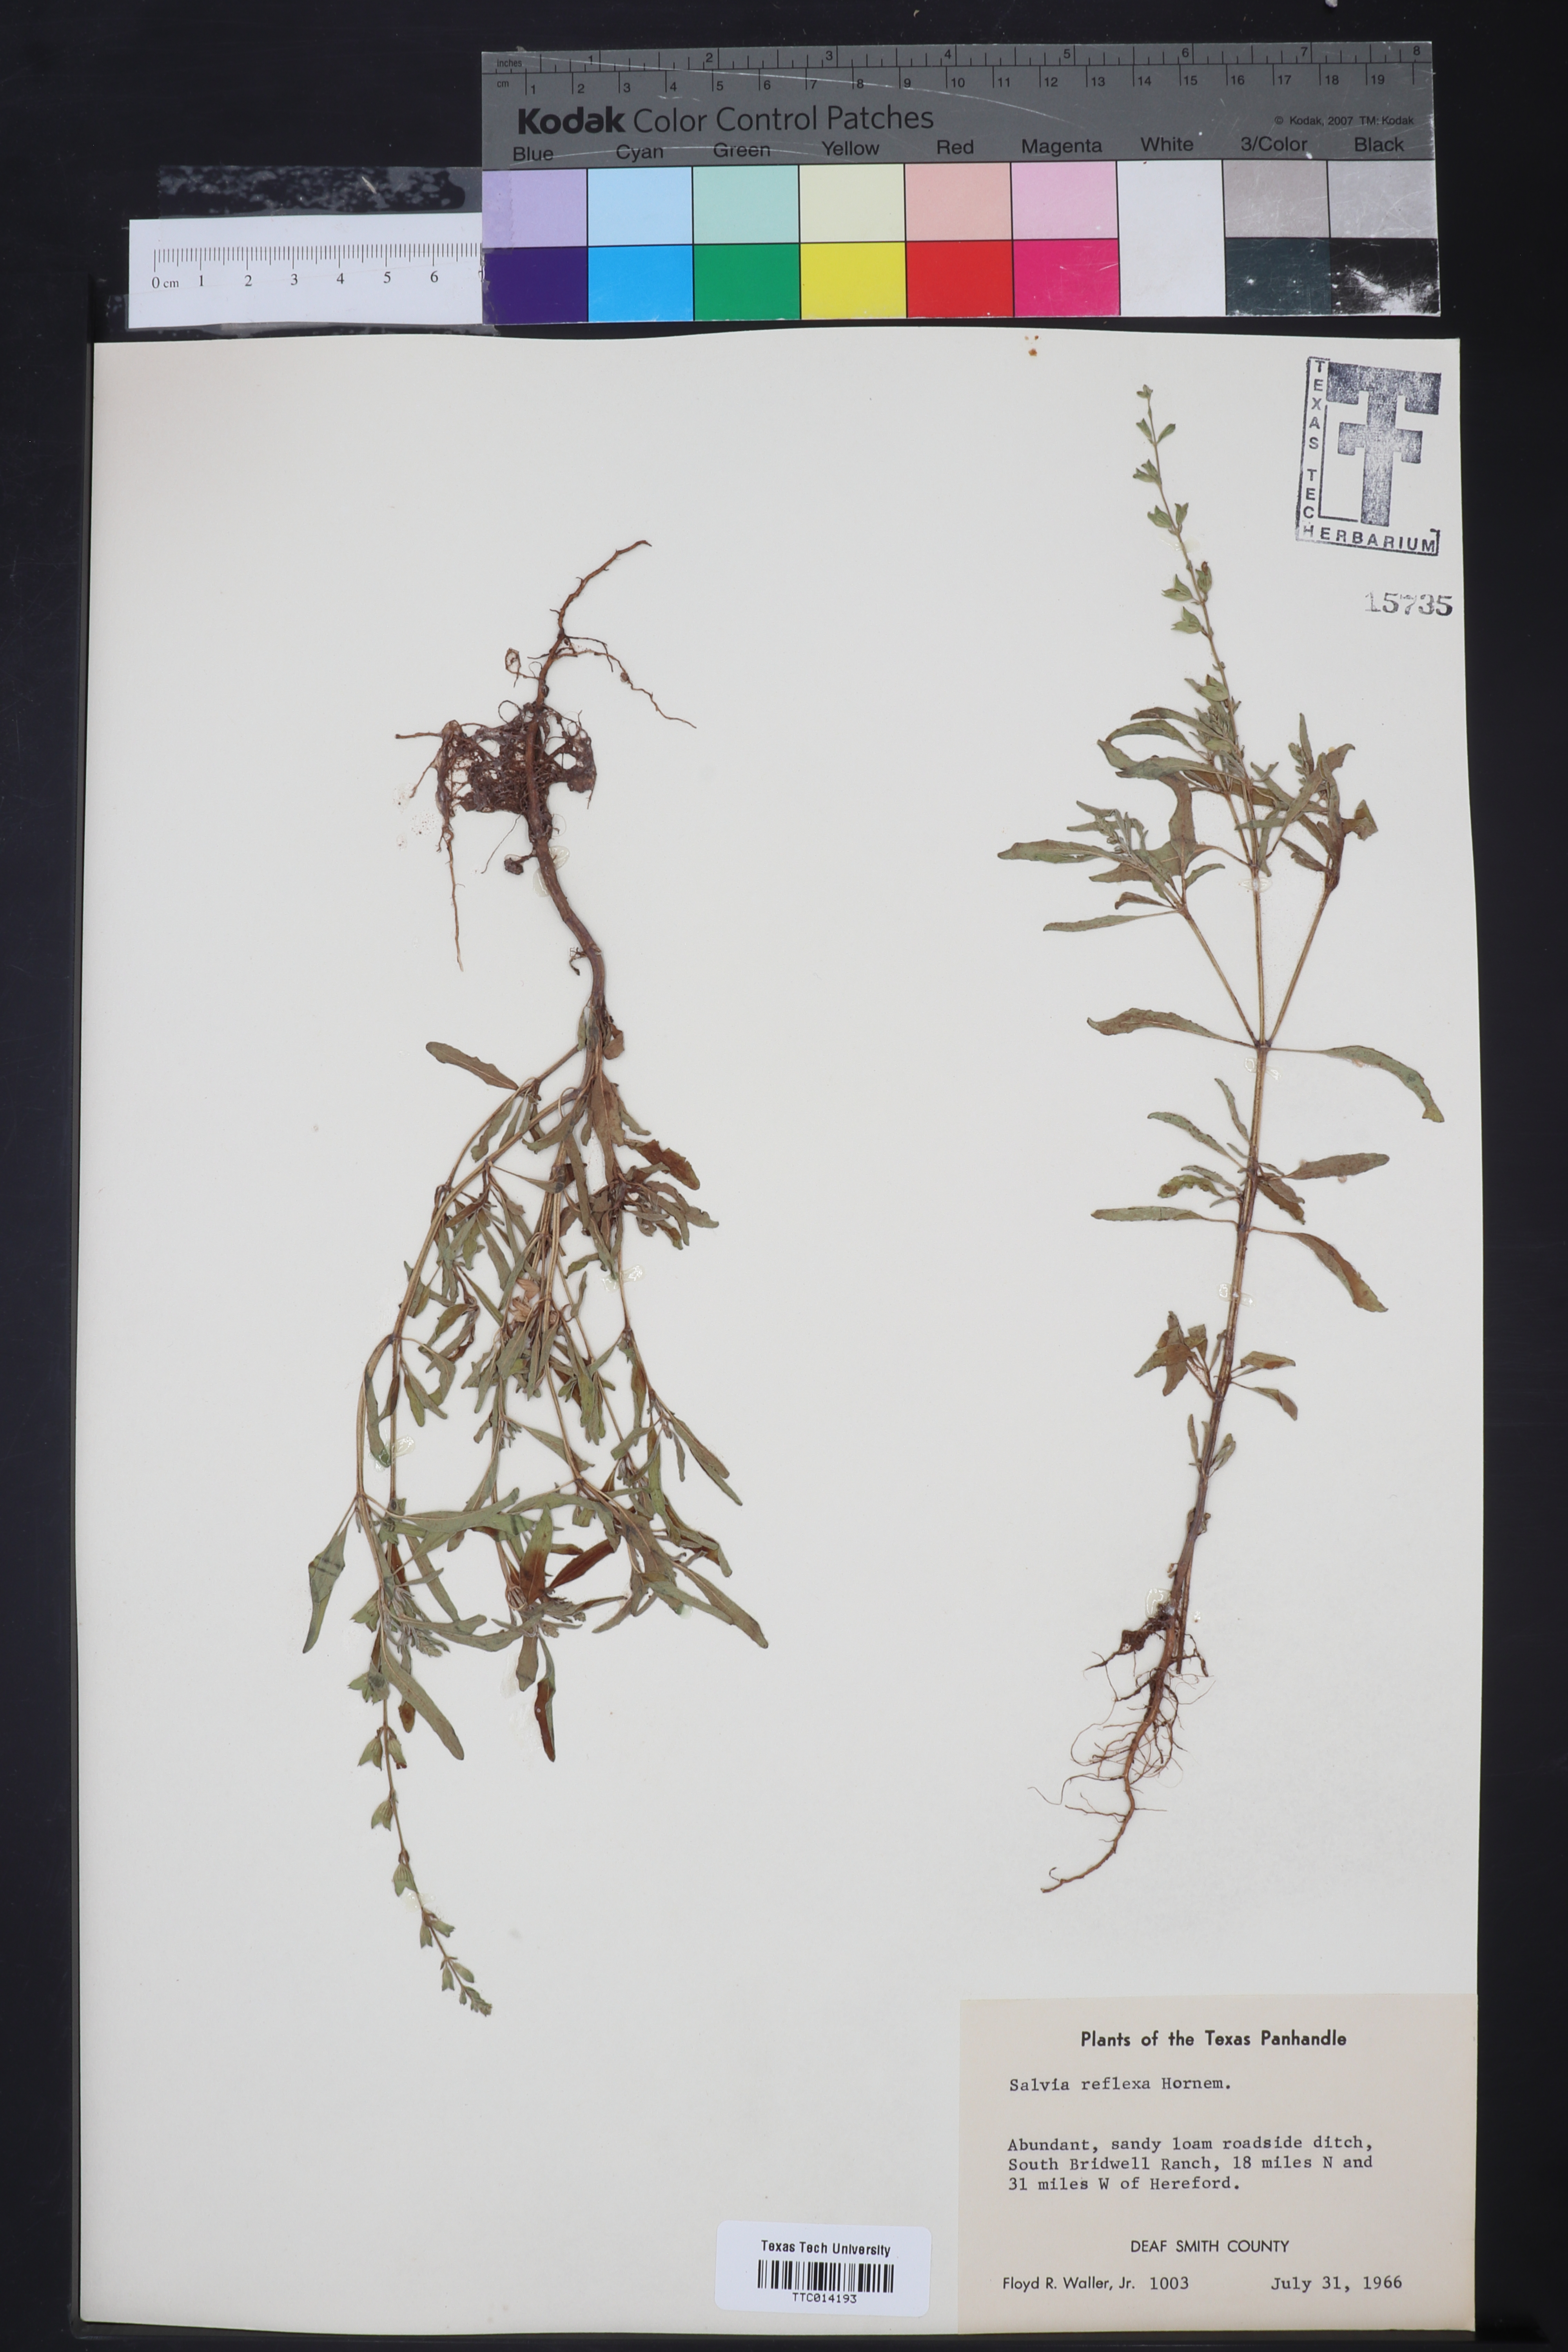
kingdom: Plantae
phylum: Tracheophyta
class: Magnoliopsida
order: Lamiales
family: Lamiaceae
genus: Salvia
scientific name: Salvia reflexa
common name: Mintweed
